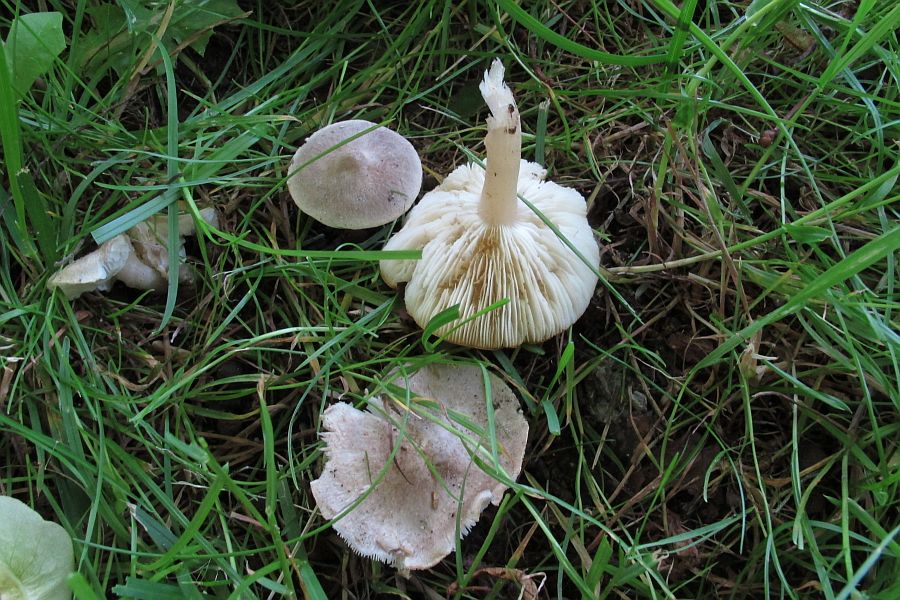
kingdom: Fungi
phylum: Basidiomycota
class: Agaricomycetes
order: Agaricales
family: Tricholomataceae
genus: Tricholoma
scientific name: Tricholoma scalpturatum
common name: gulplettet ridderhat
